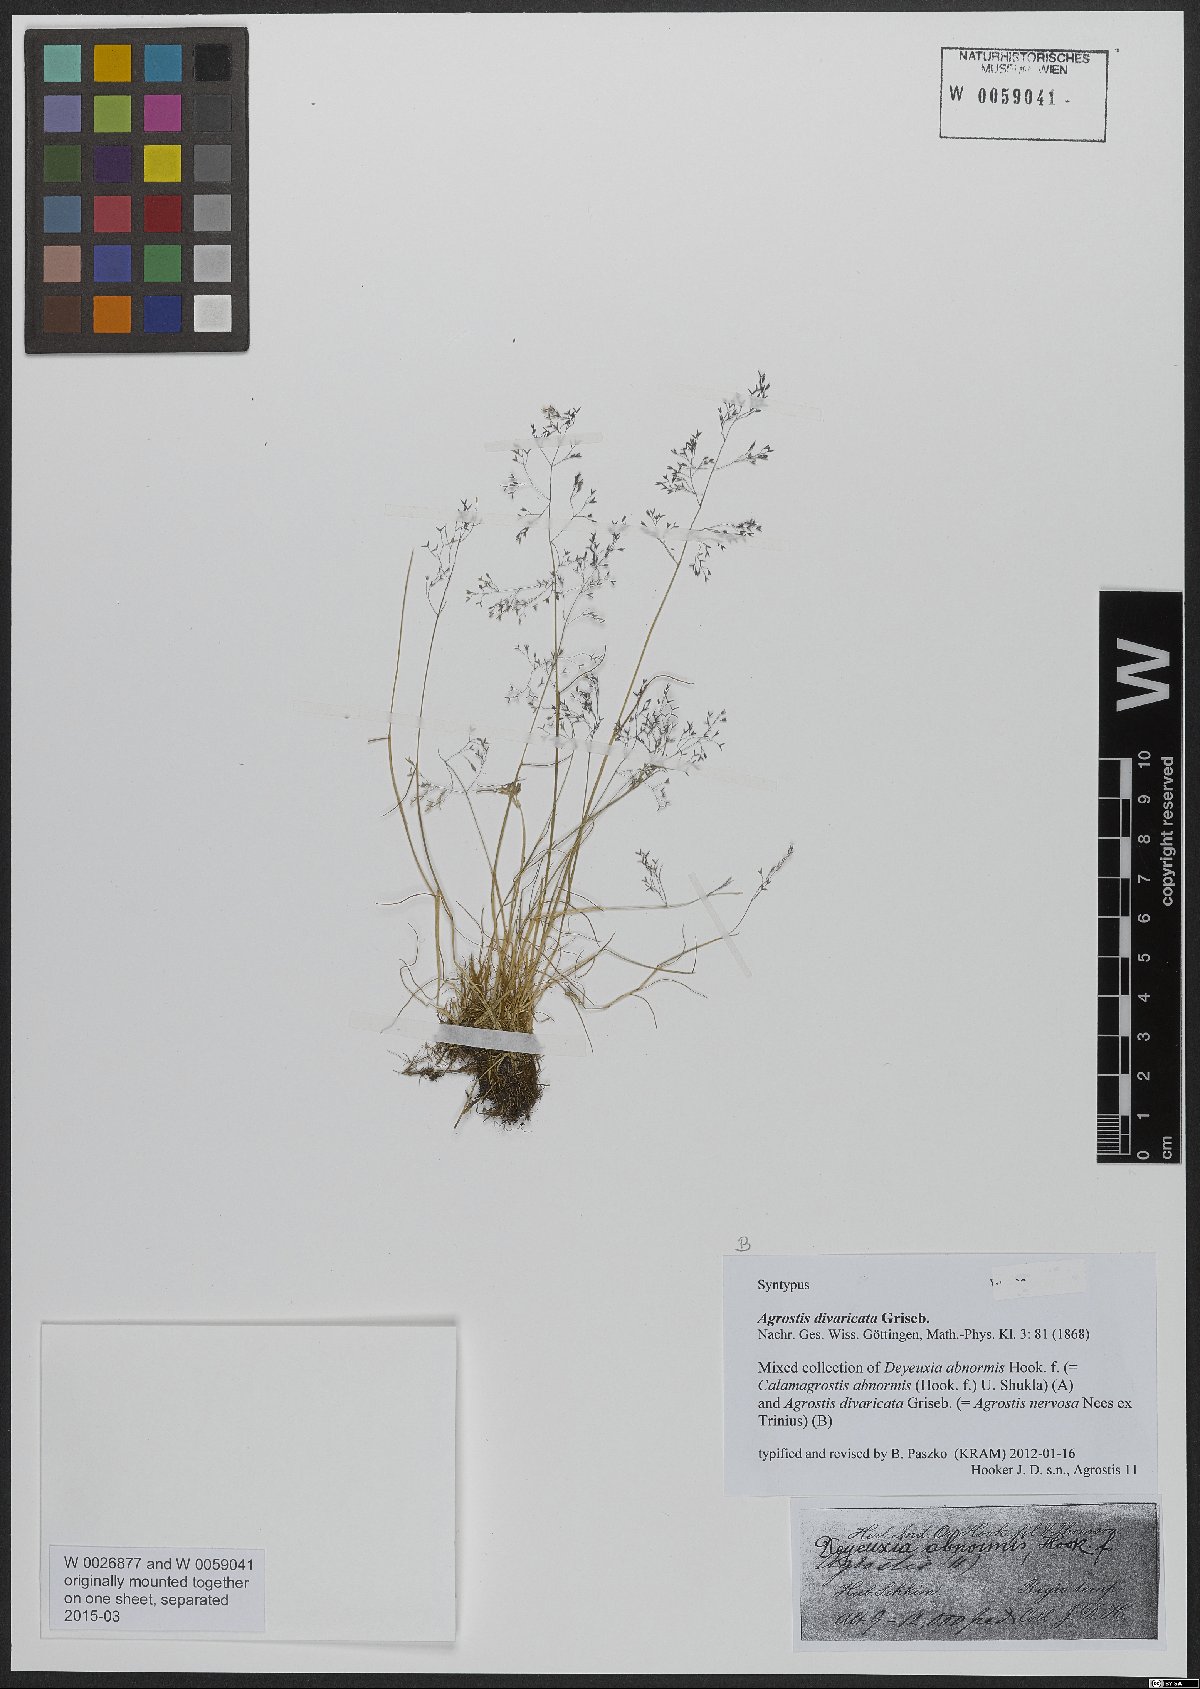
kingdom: Plantae
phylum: Tracheophyta
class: Liliopsida
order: Poales
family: Poaceae
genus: Agrostis
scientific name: Agrostis nervosa
